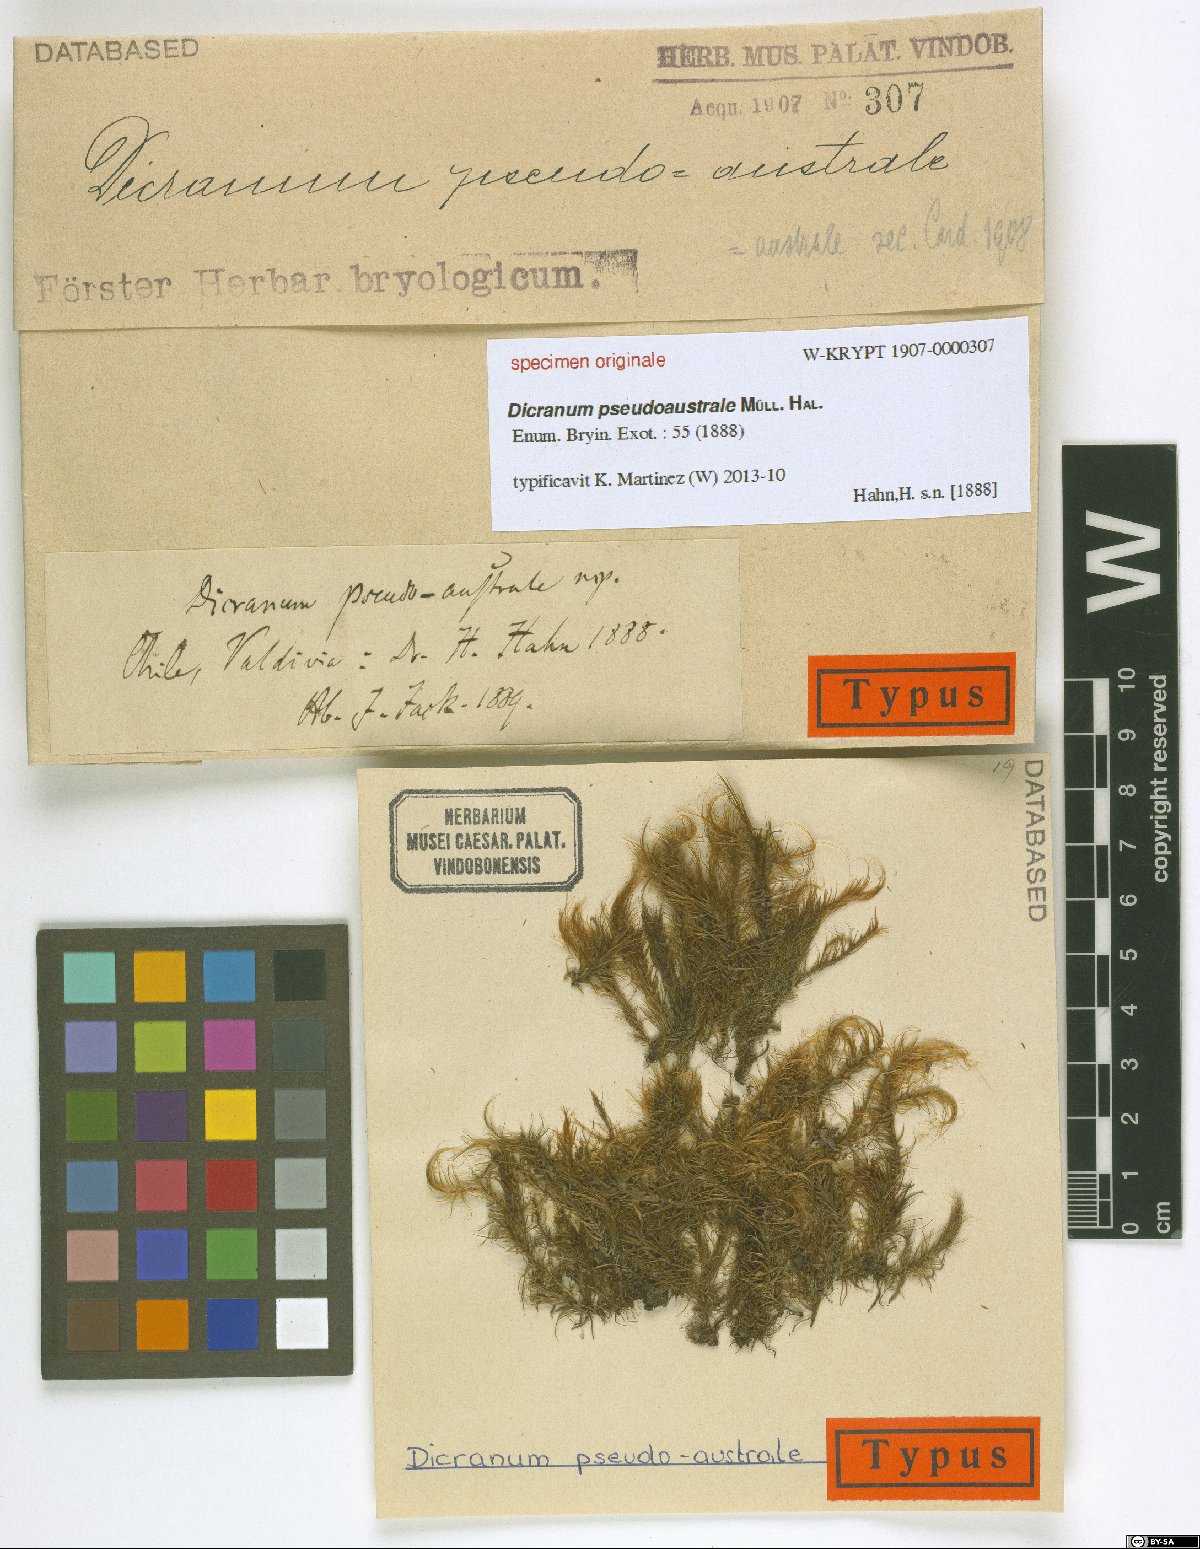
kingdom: Plantae
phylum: Bryophyta
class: Bryopsida
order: Dicranales
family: Dicranaceae
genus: Dicranum
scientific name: Dicranum
